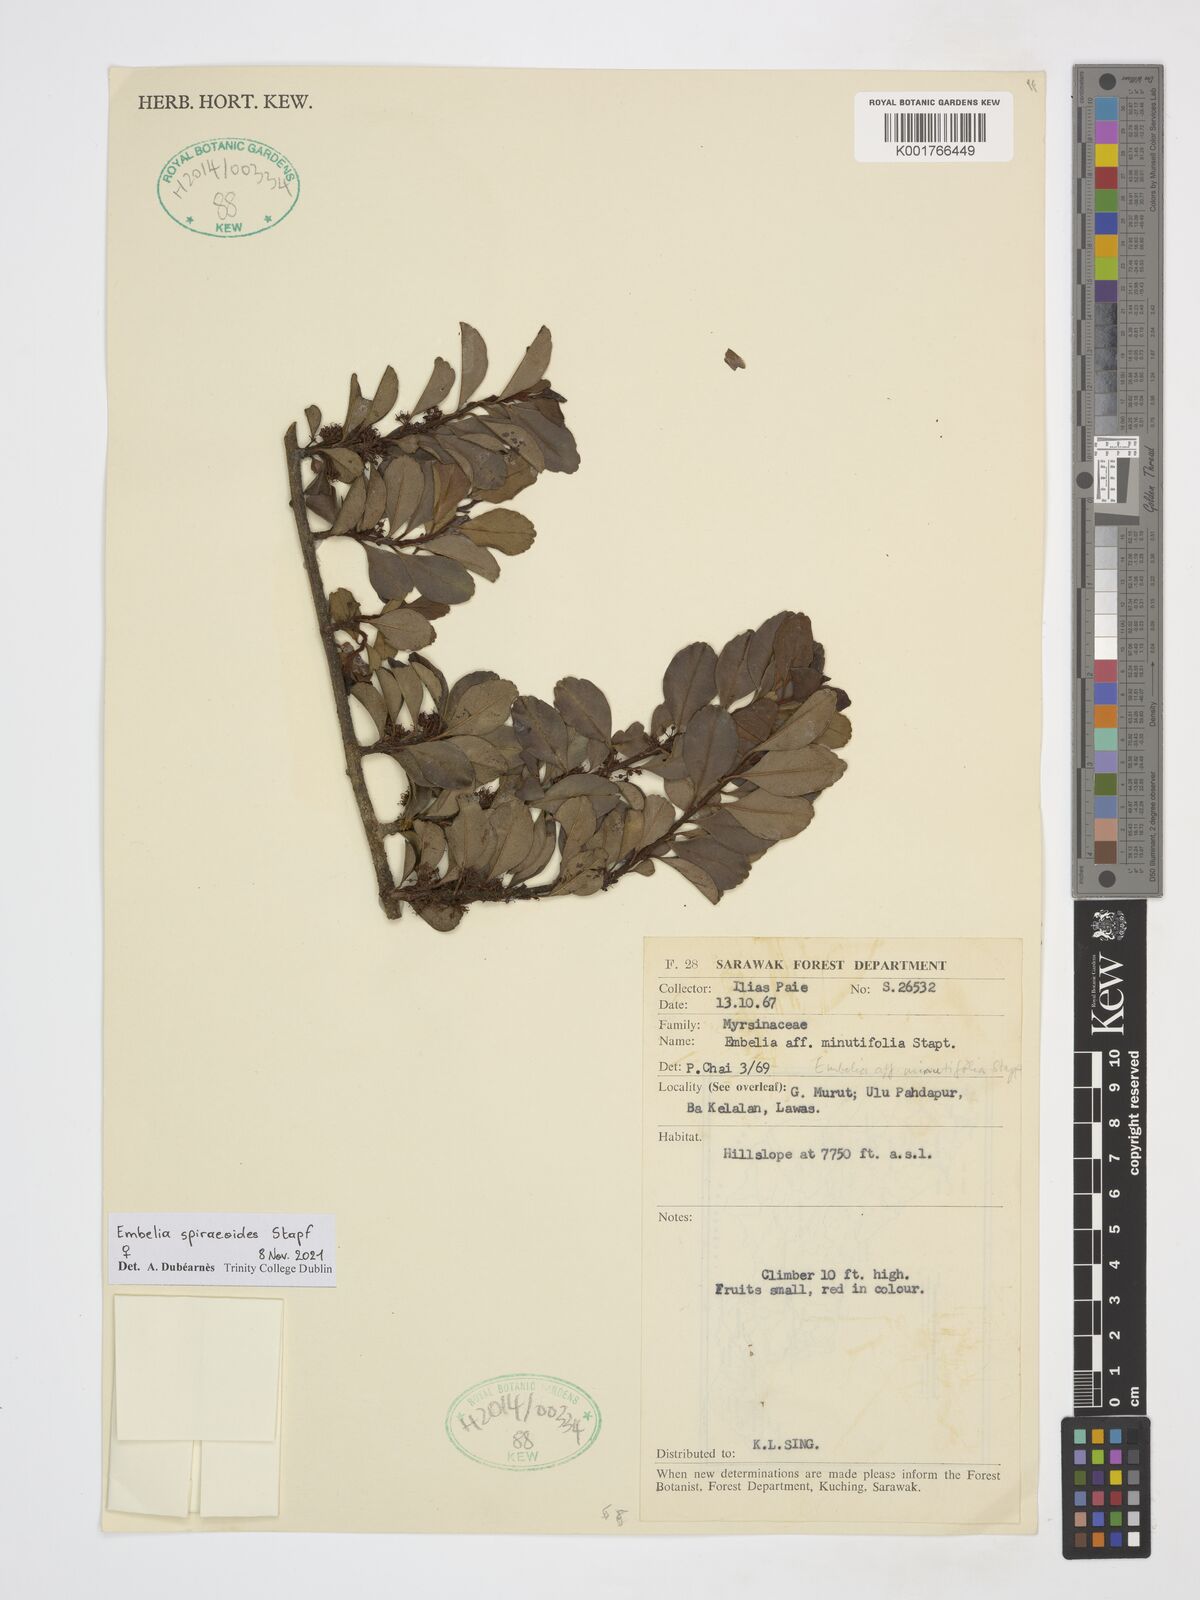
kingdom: Plantae
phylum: Tracheophyta
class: Magnoliopsida
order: Ericales
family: Primulaceae
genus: Embelia
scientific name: Embelia spiraeoides
